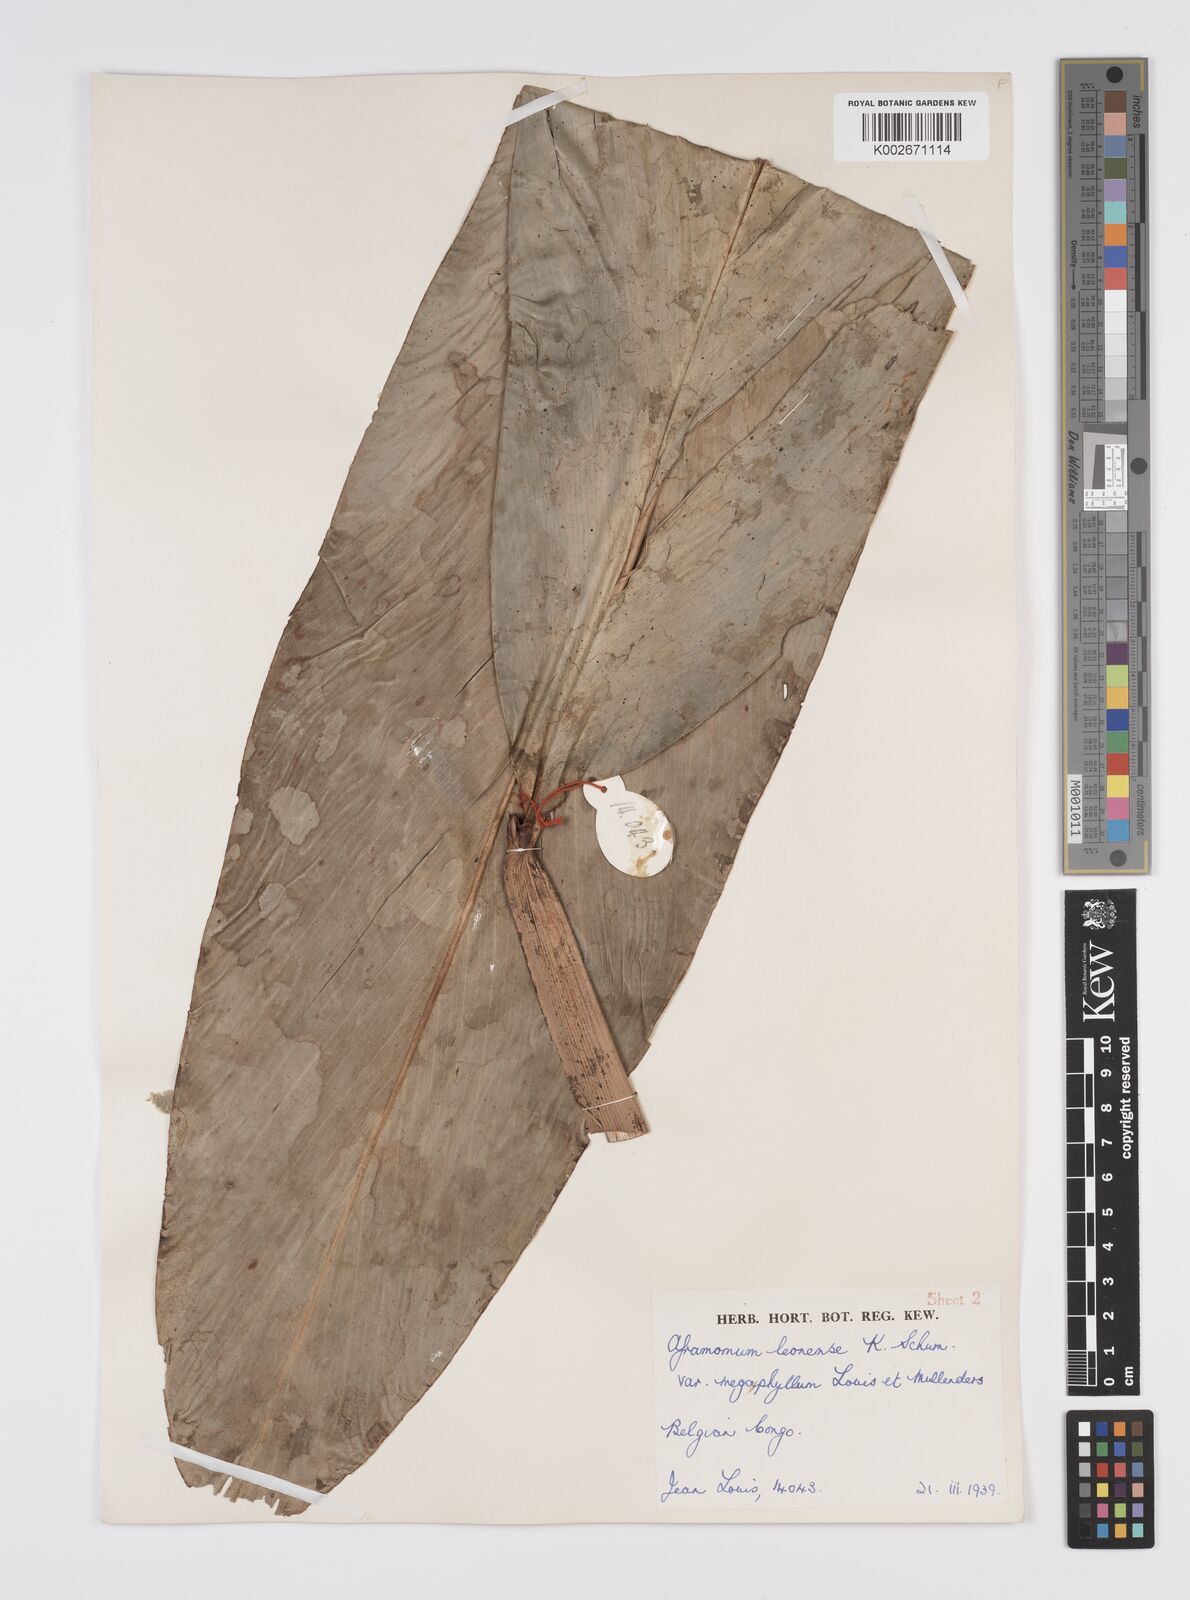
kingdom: Plantae
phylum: Tracheophyta
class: Liliopsida
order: Zingiberales
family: Zingiberaceae
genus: Aframomum
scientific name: Aframomum daniellii
